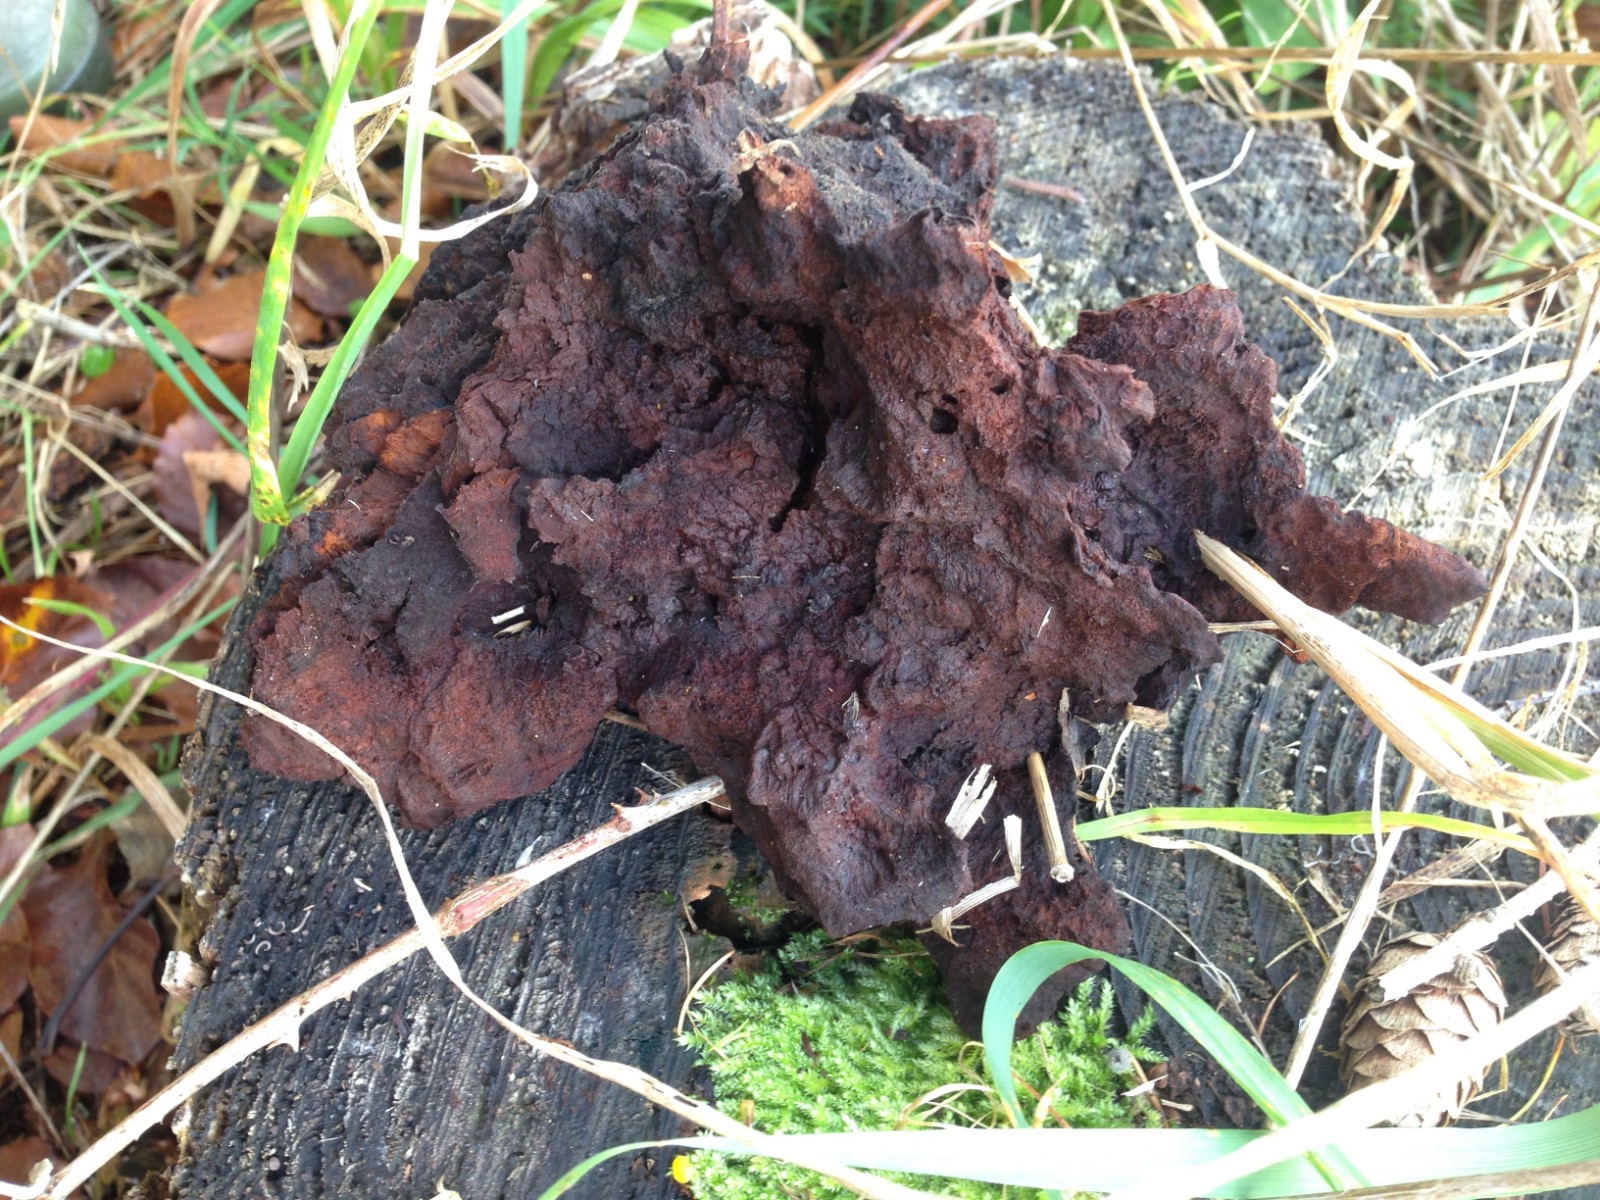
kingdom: Fungi
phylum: Basidiomycota
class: Agaricomycetes
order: Polyporales
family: Laetiporaceae
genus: Phaeolus
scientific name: Phaeolus schweinitzii
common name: brunporesvamp
